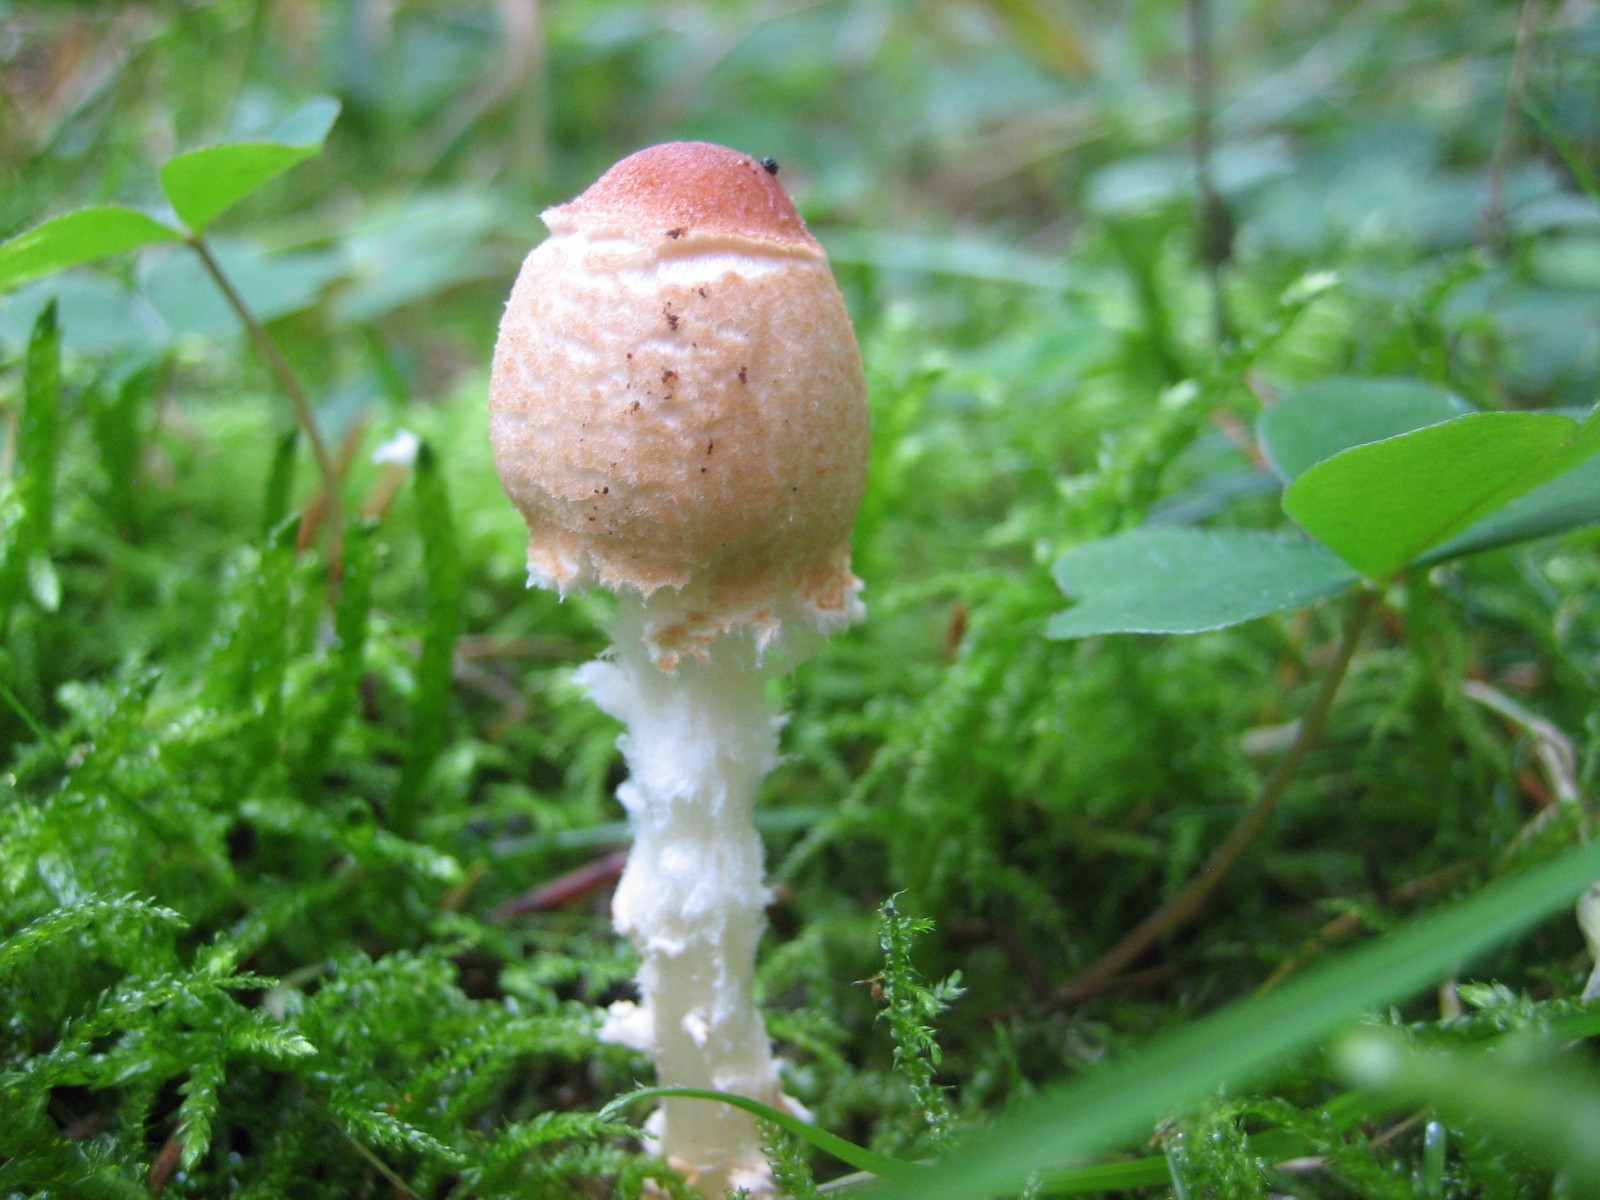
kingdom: Fungi
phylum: Basidiomycota
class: Agaricomycetes
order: Agaricales
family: Agaricaceae
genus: Lepiota
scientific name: Lepiota magnispora
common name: gulfnugget parasolhat
